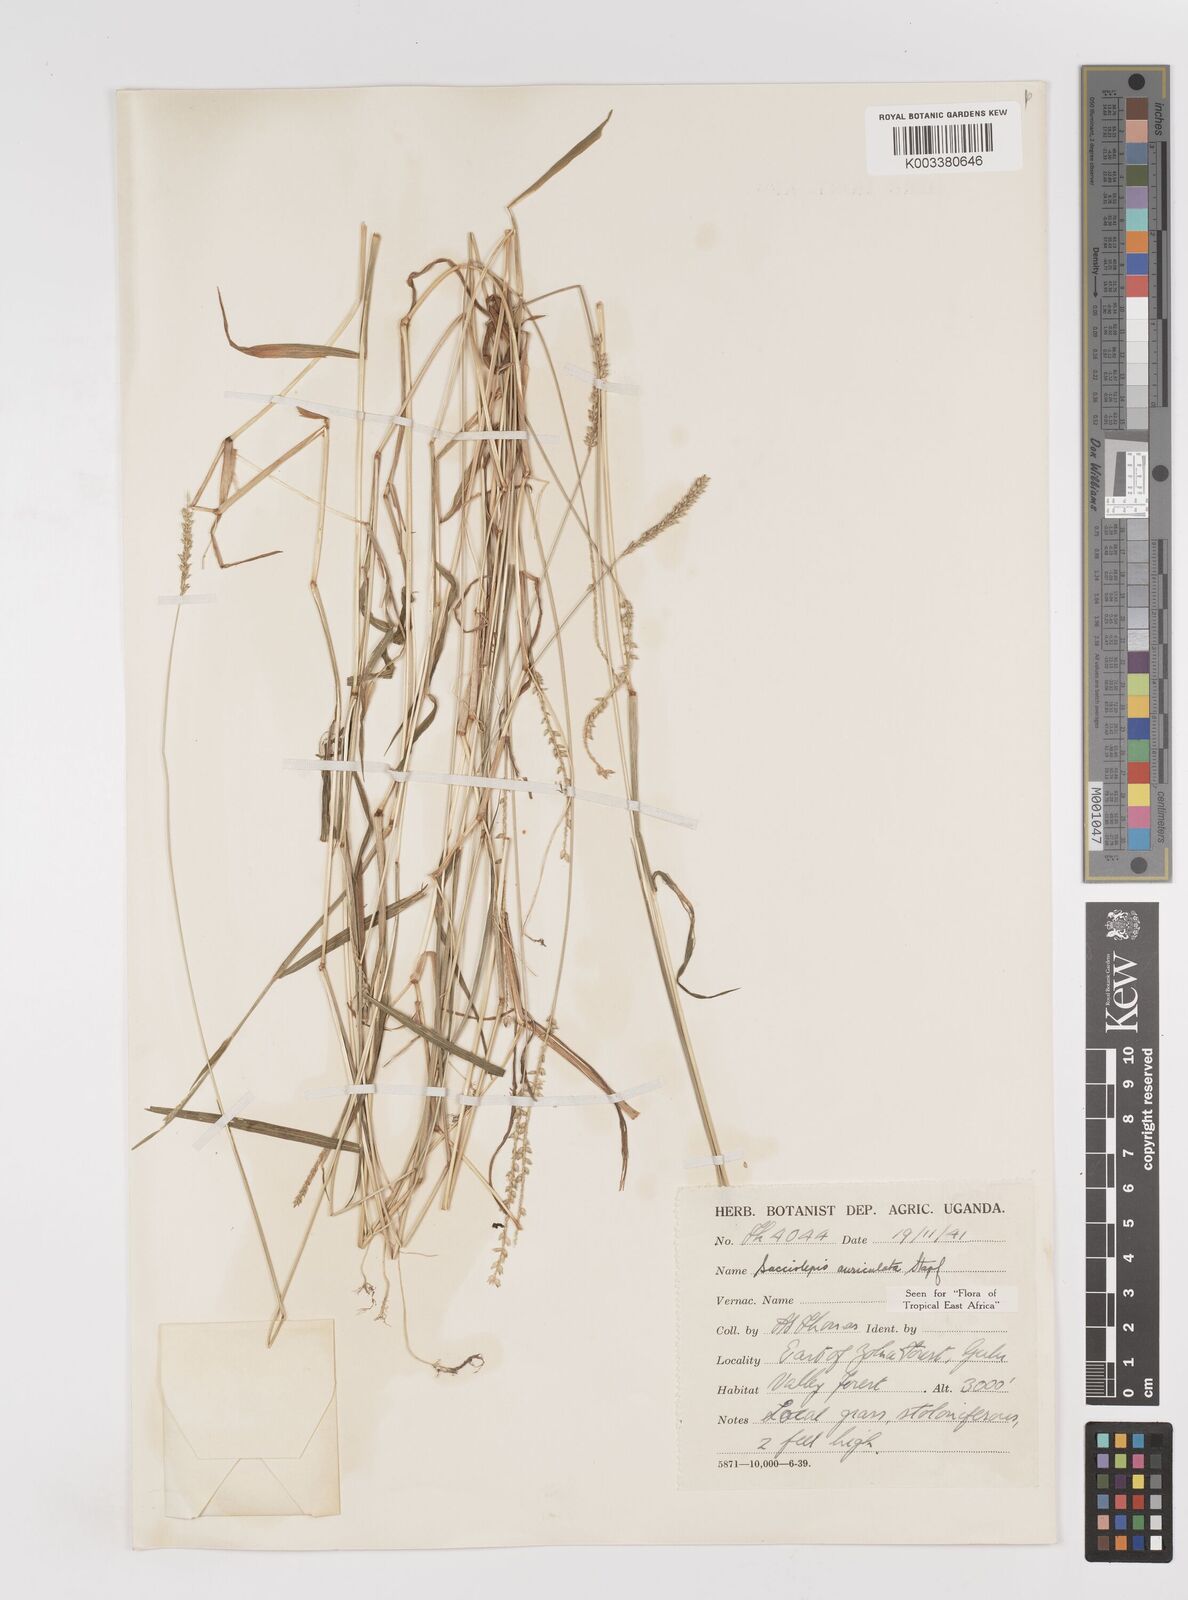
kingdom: Plantae
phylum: Tracheophyta
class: Liliopsida
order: Poales
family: Poaceae
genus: Sacciolepis
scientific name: Sacciolepis indica
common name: Glenwoodgrass
